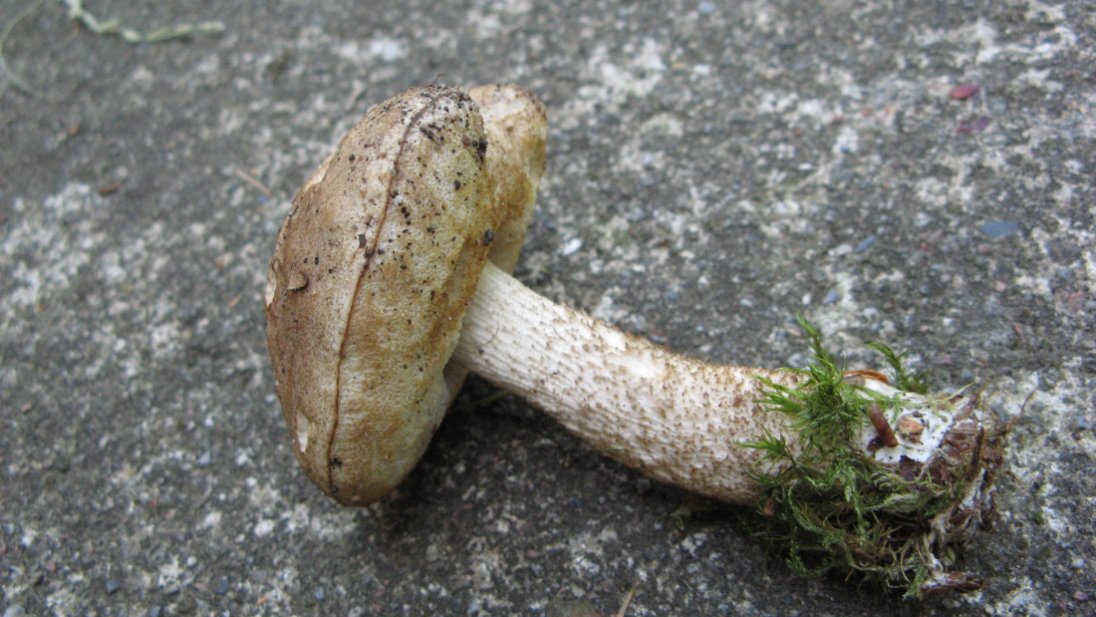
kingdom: Fungi
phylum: Basidiomycota
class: Agaricomycetes
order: Boletales
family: Boletaceae
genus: Leccinum
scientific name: Leccinum scabrum
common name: hvid skælrørhat
